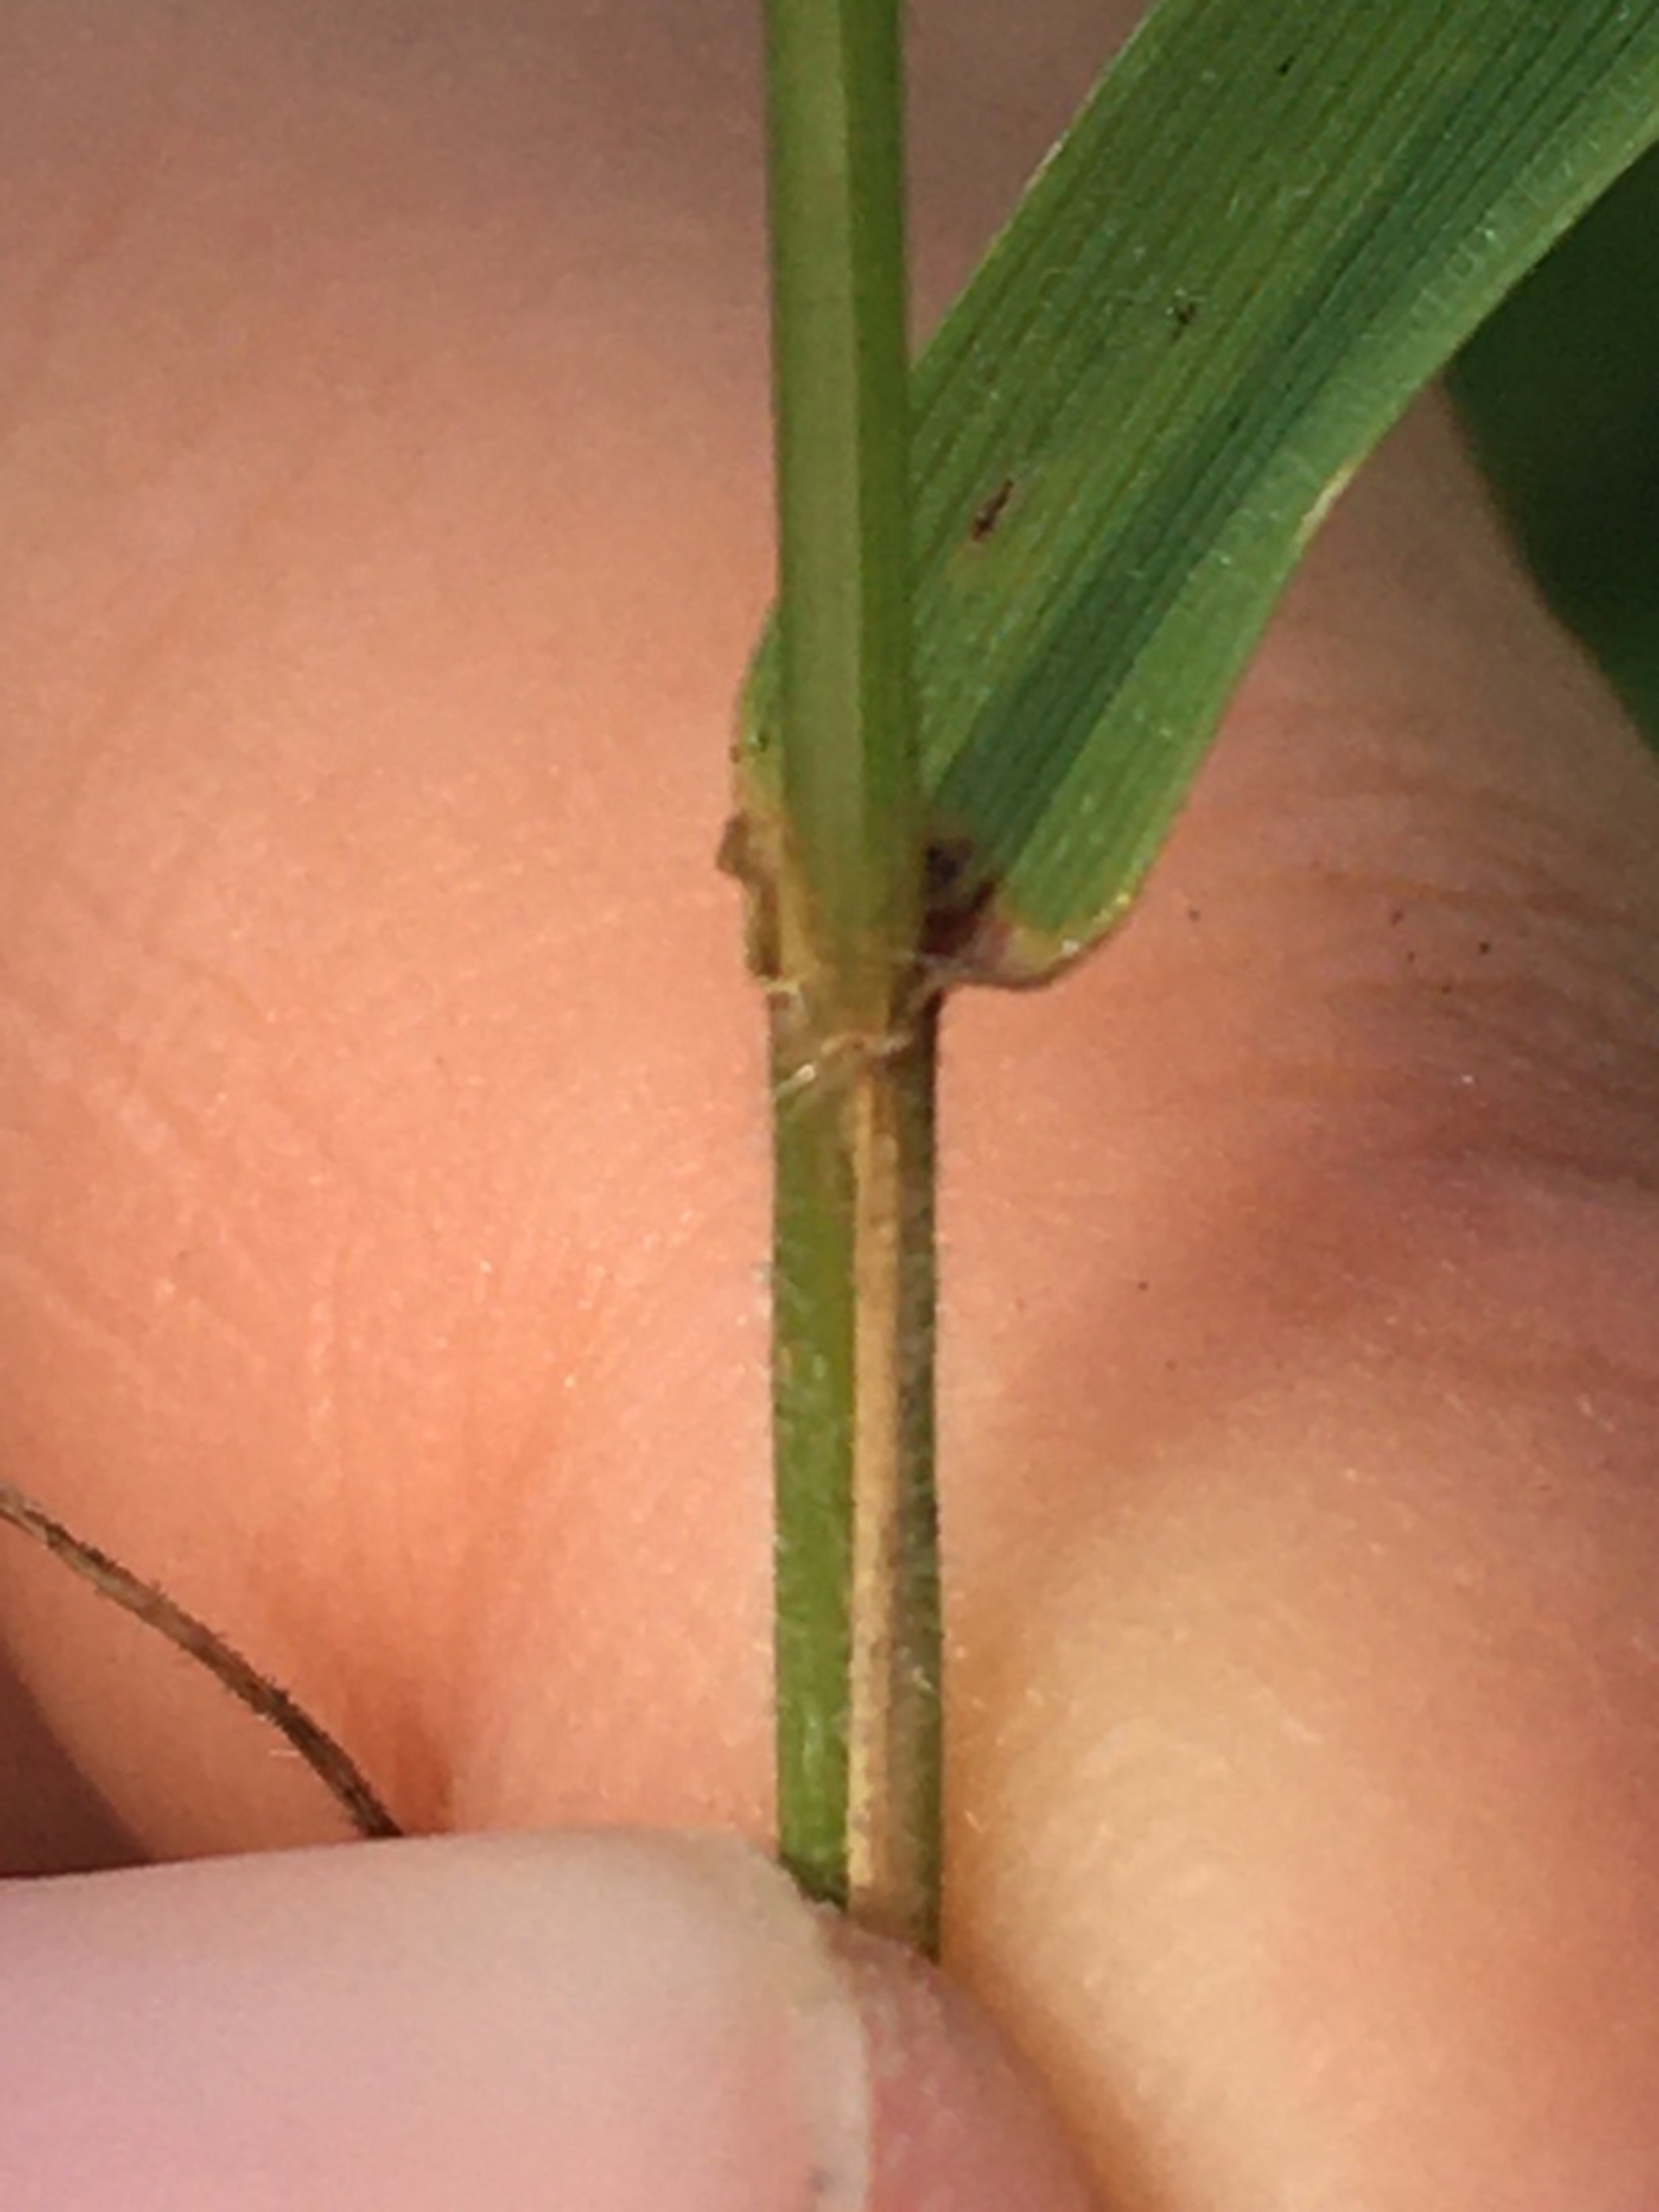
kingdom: Plantae
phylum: Tracheophyta
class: Liliopsida
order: Poales
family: Poaceae
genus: Anthoxanthum
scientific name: Anthoxanthum odoratum
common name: Vellugtende gulaks
